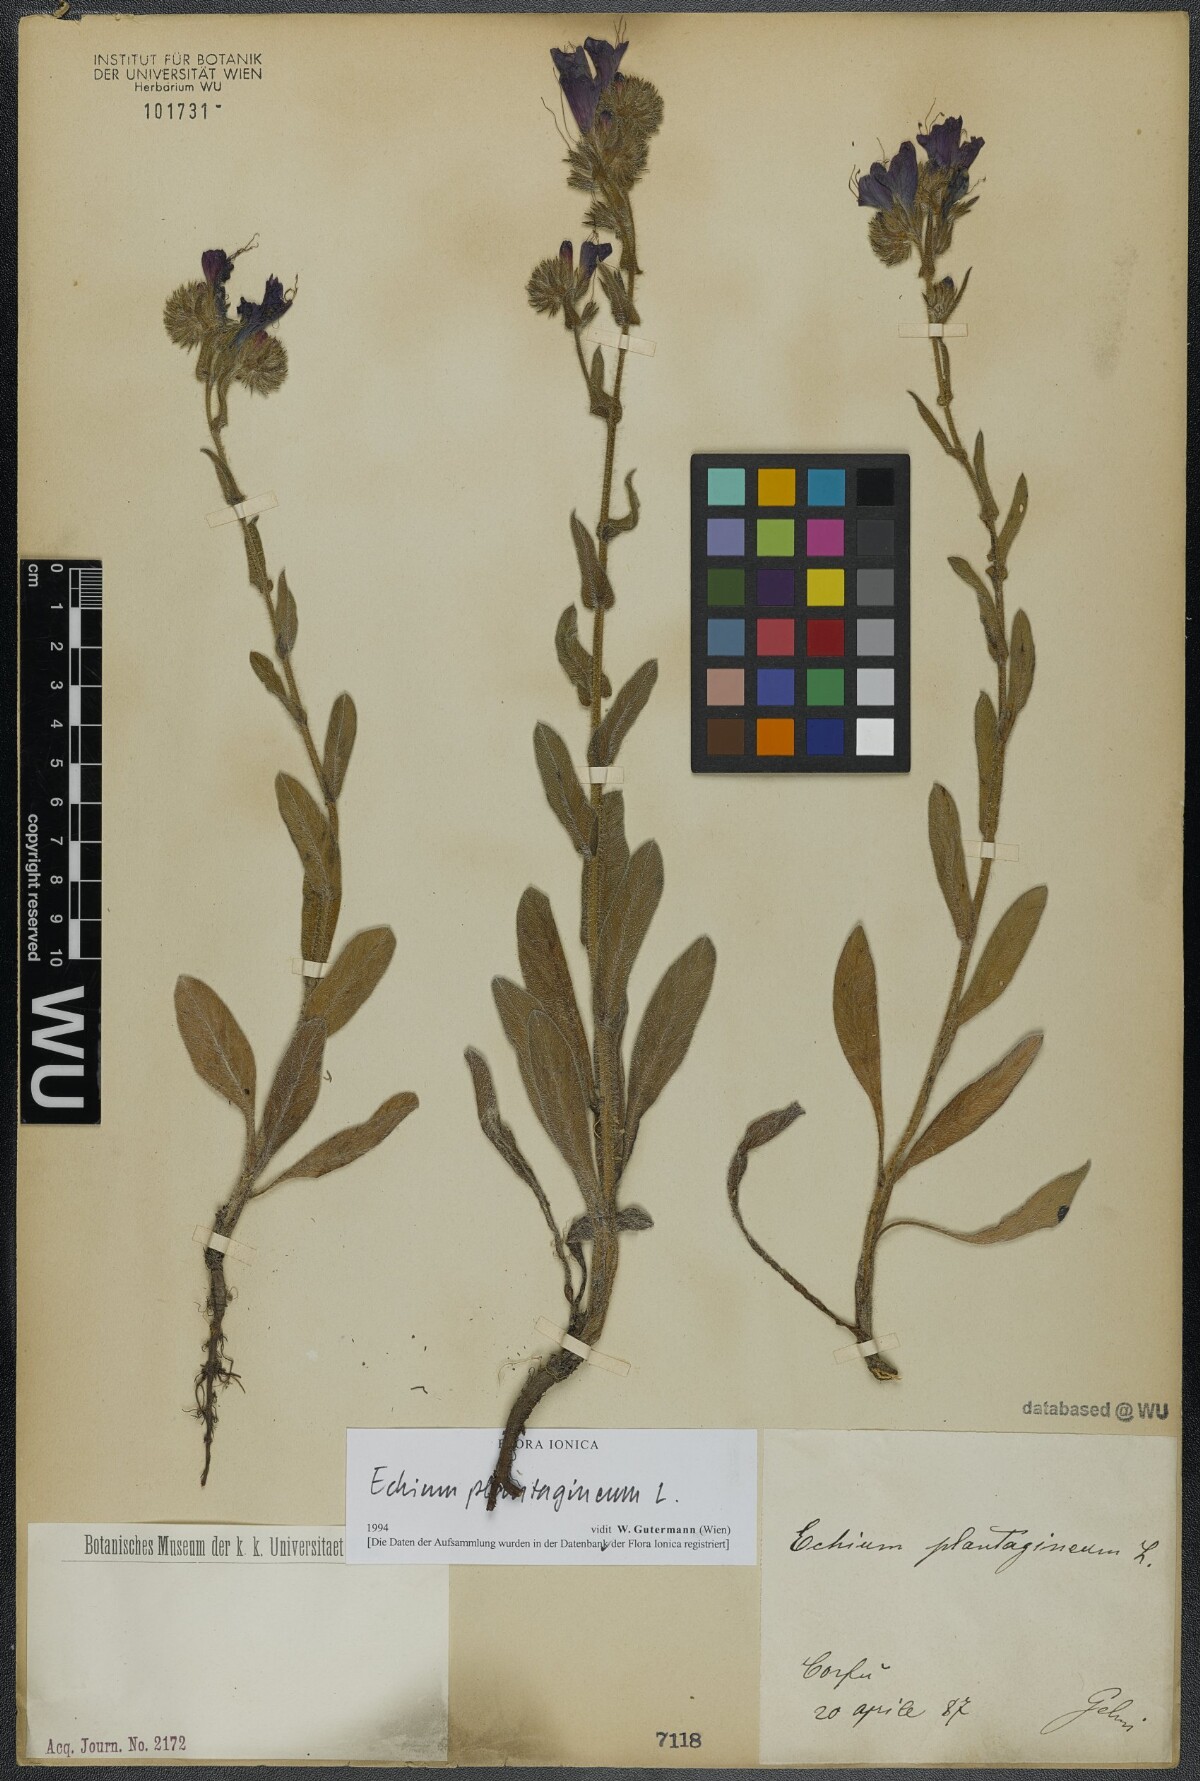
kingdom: Plantae
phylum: Tracheophyta
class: Magnoliopsida
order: Boraginales
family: Boraginaceae
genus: Echium
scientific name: Echium plantagineum
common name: Purple viper's-bugloss
